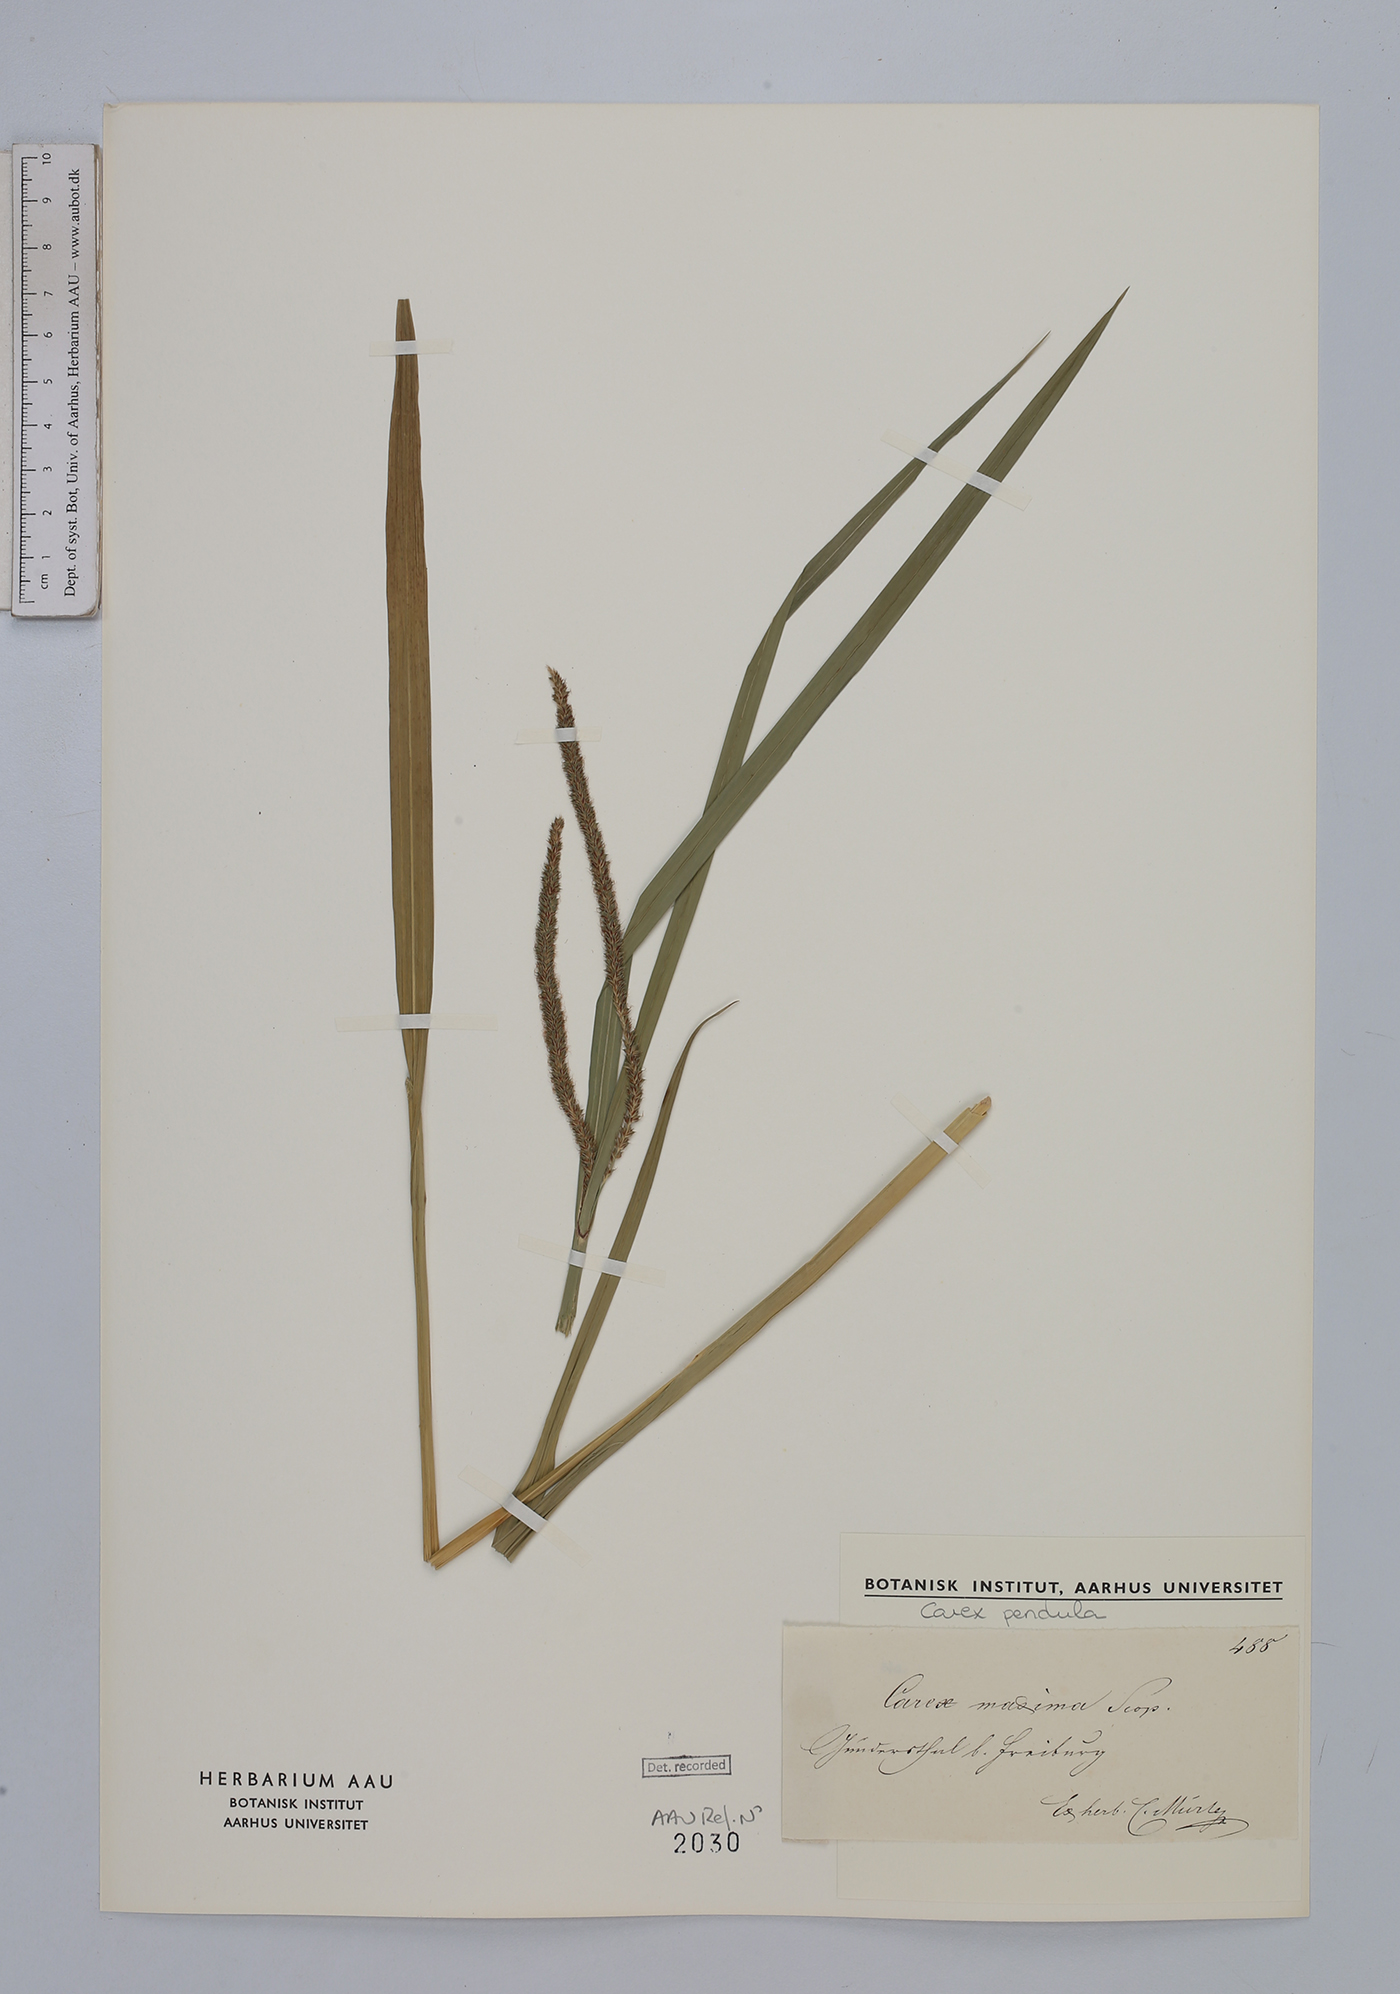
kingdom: Plantae
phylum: Tracheophyta
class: Liliopsida
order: Poales
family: Cyperaceae
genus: Carex
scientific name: Carex pendula
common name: Pendulous sedge
